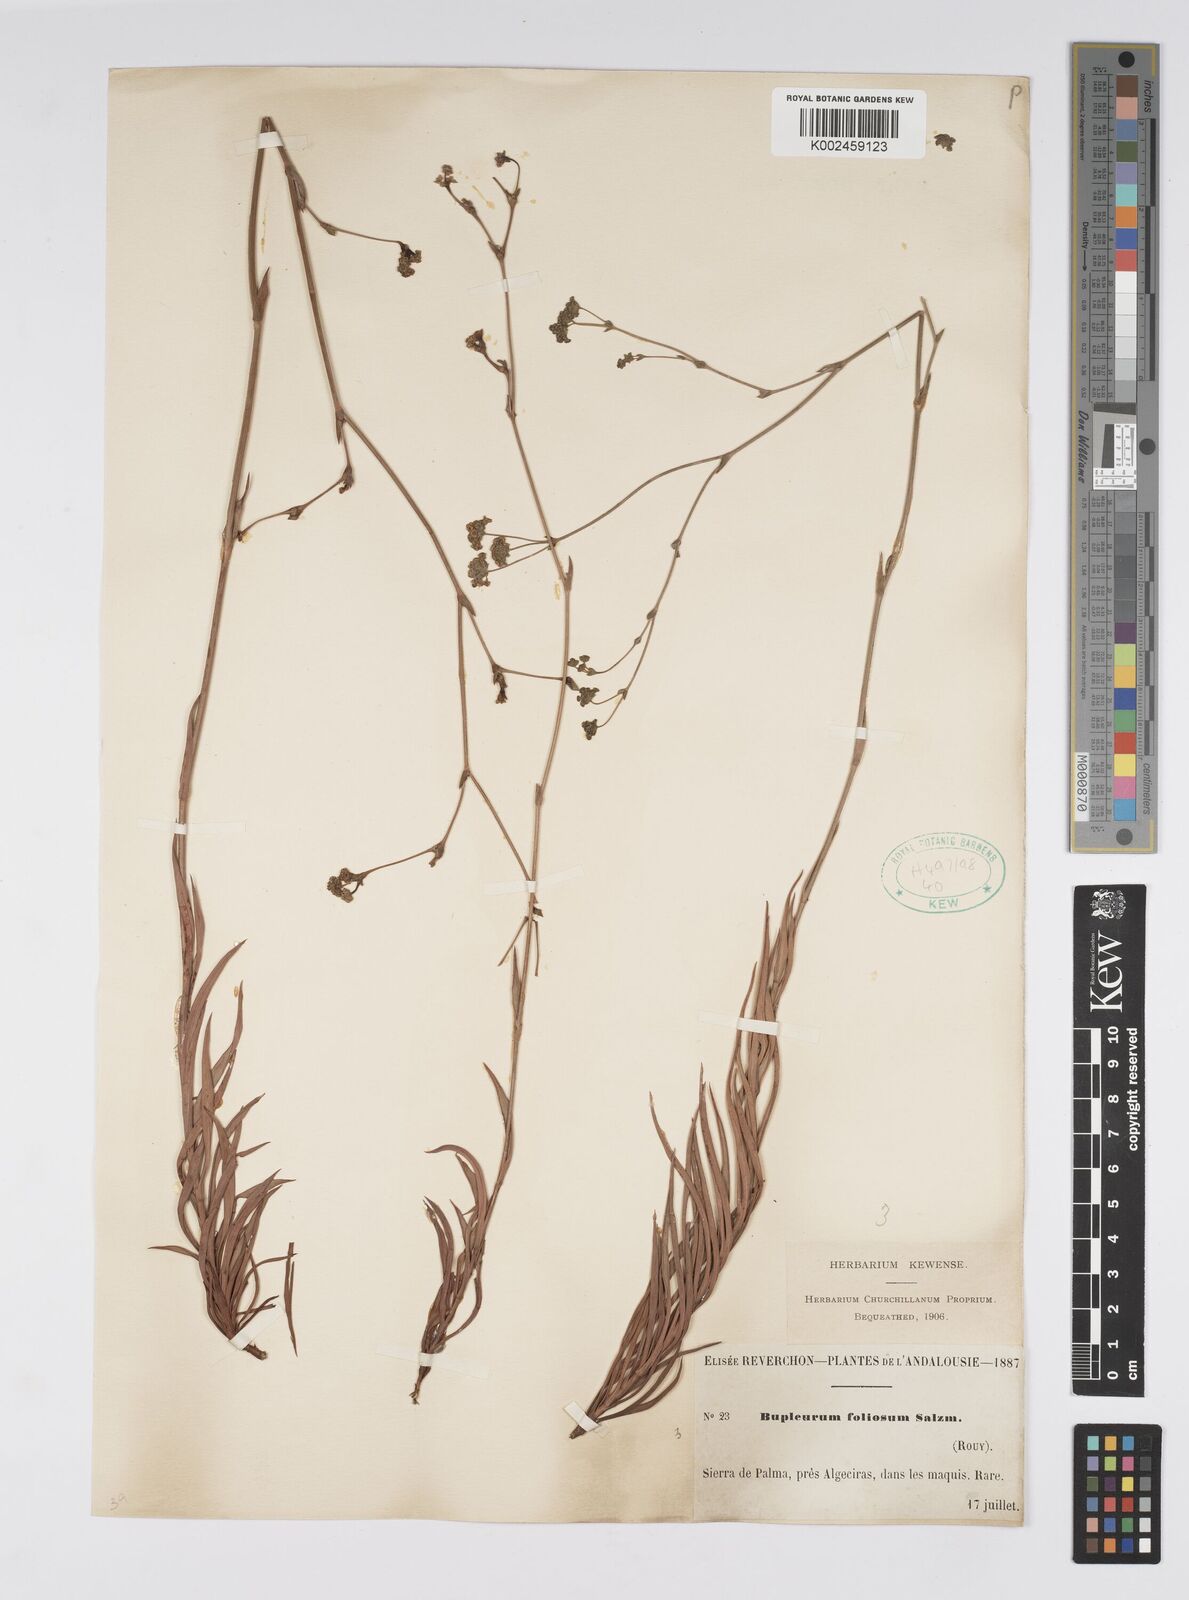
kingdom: Plantae
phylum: Tracheophyta
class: Magnoliopsida
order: Apiales
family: Apiaceae
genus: Bupleurum
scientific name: Bupleurum foliosum
